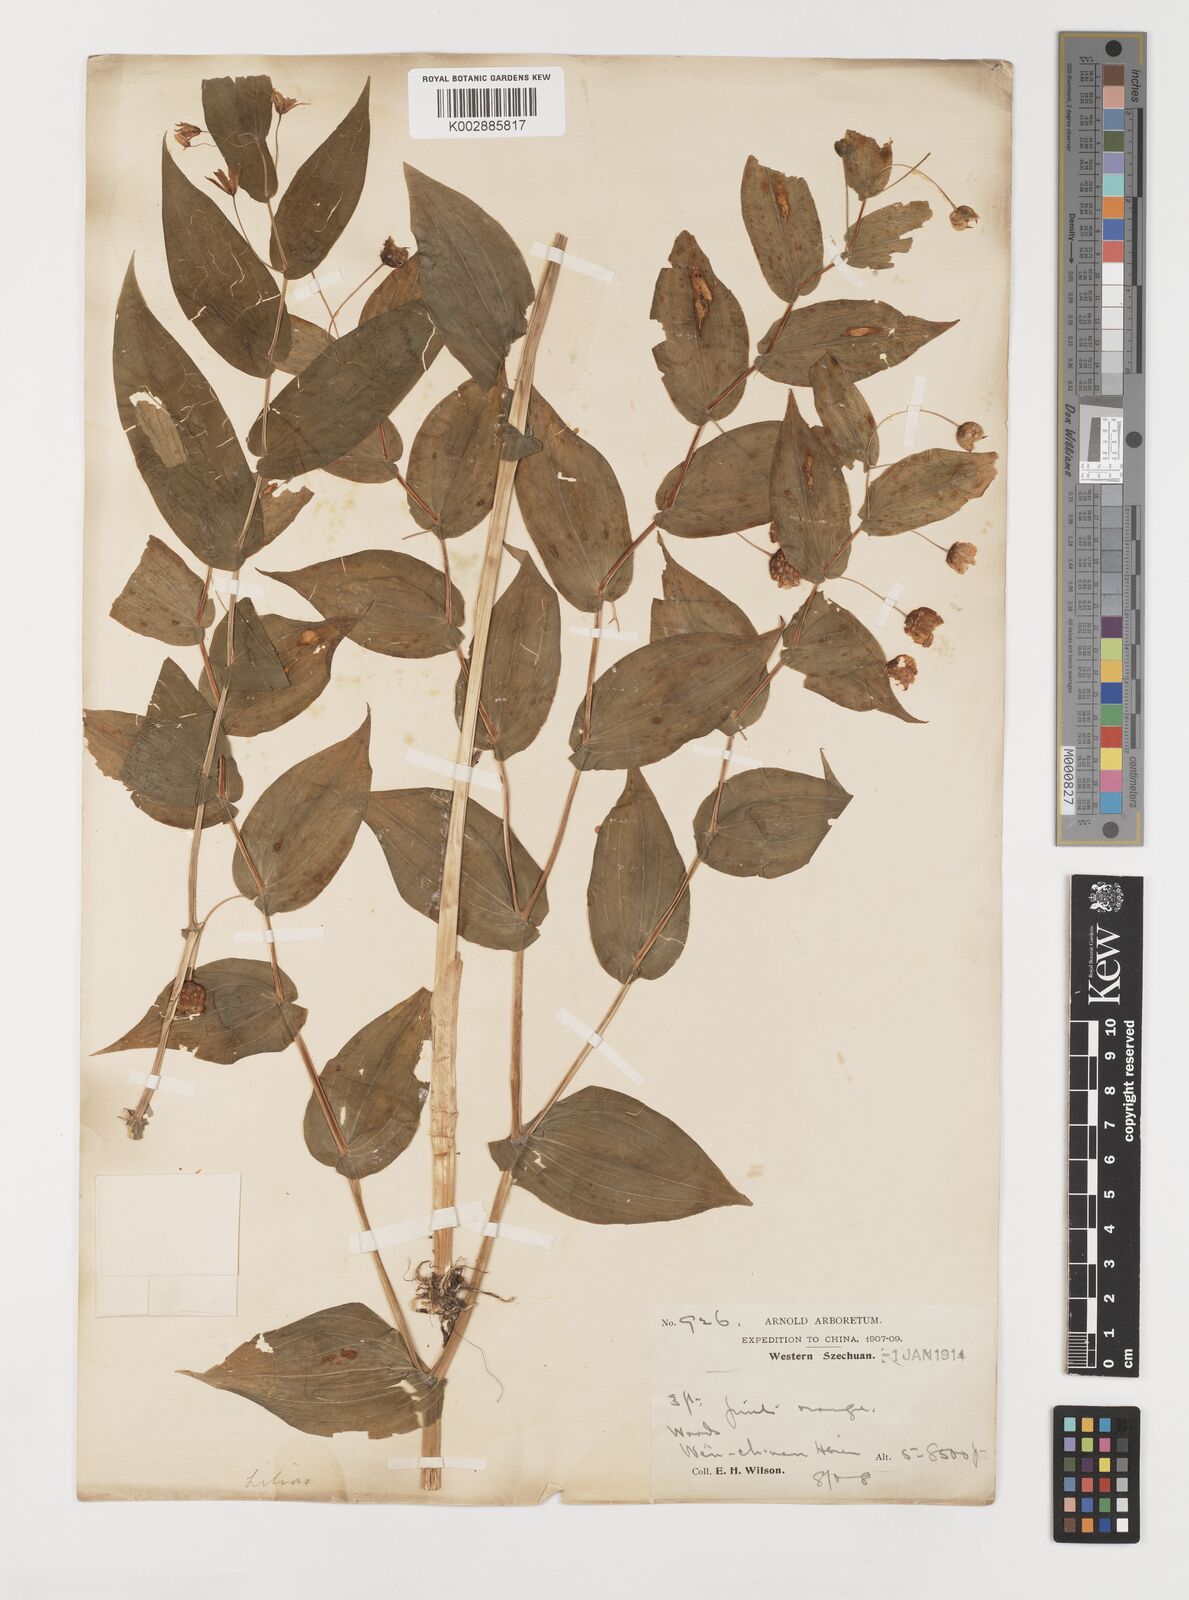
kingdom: Plantae
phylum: Tracheophyta
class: Liliopsida
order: Liliales
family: Liliaceae
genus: Streptopus
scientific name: Streptopus parviflorus
